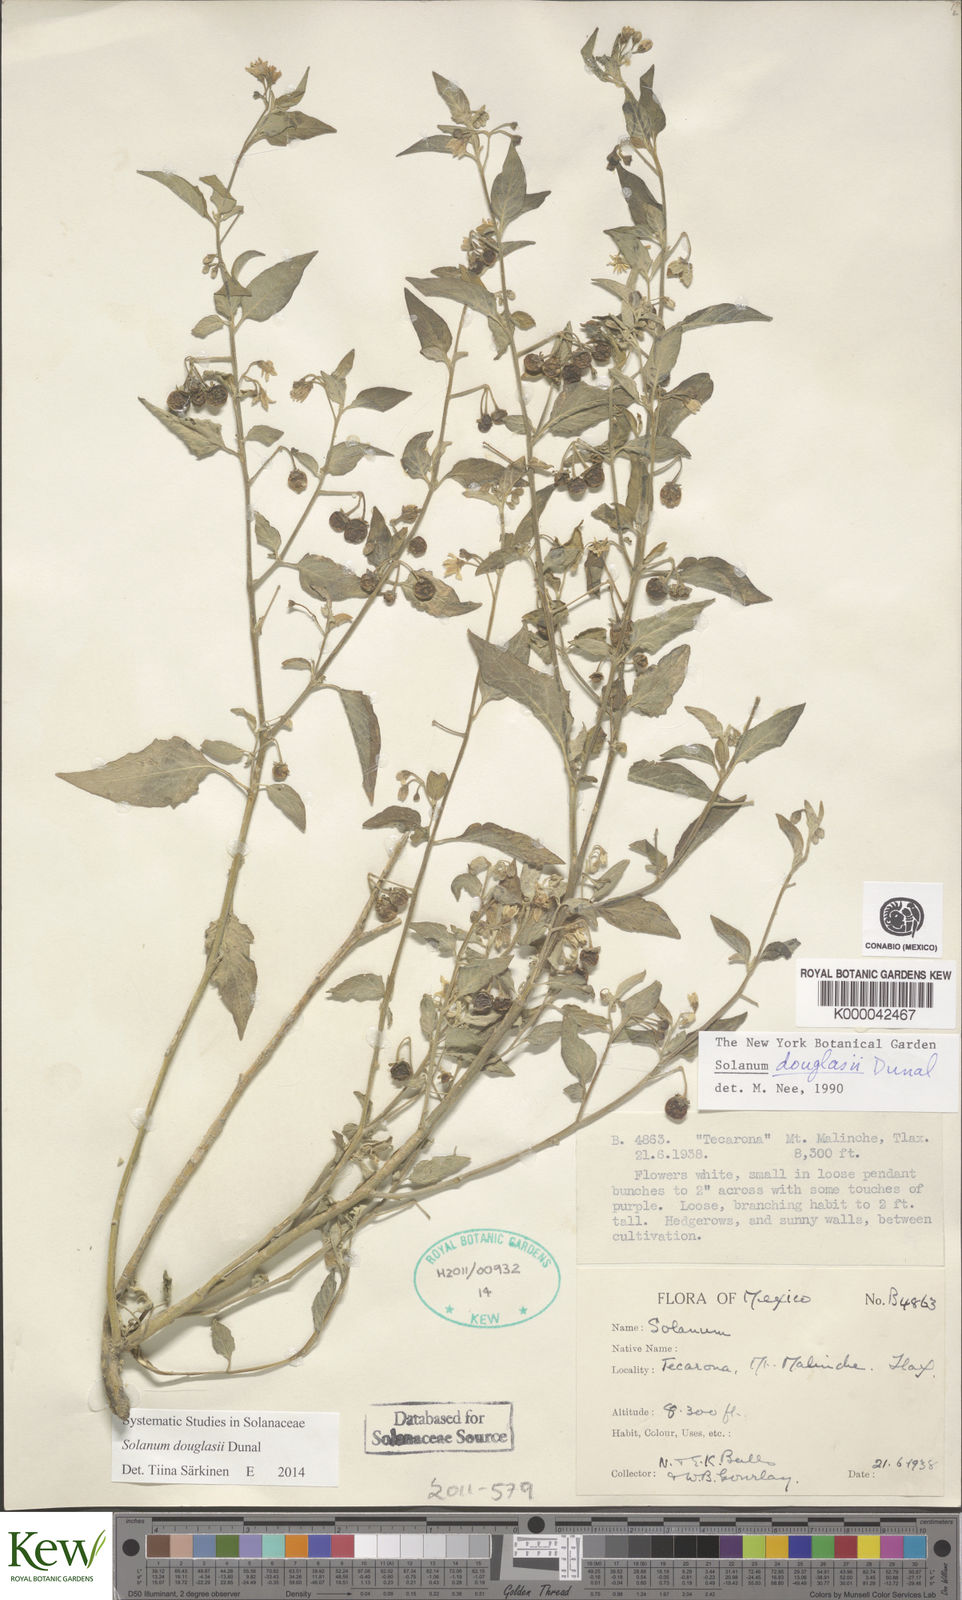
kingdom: Plantae
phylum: Tracheophyta
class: Magnoliopsida
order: Solanales
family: Solanaceae
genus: Solanum
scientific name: Solanum douglasii
